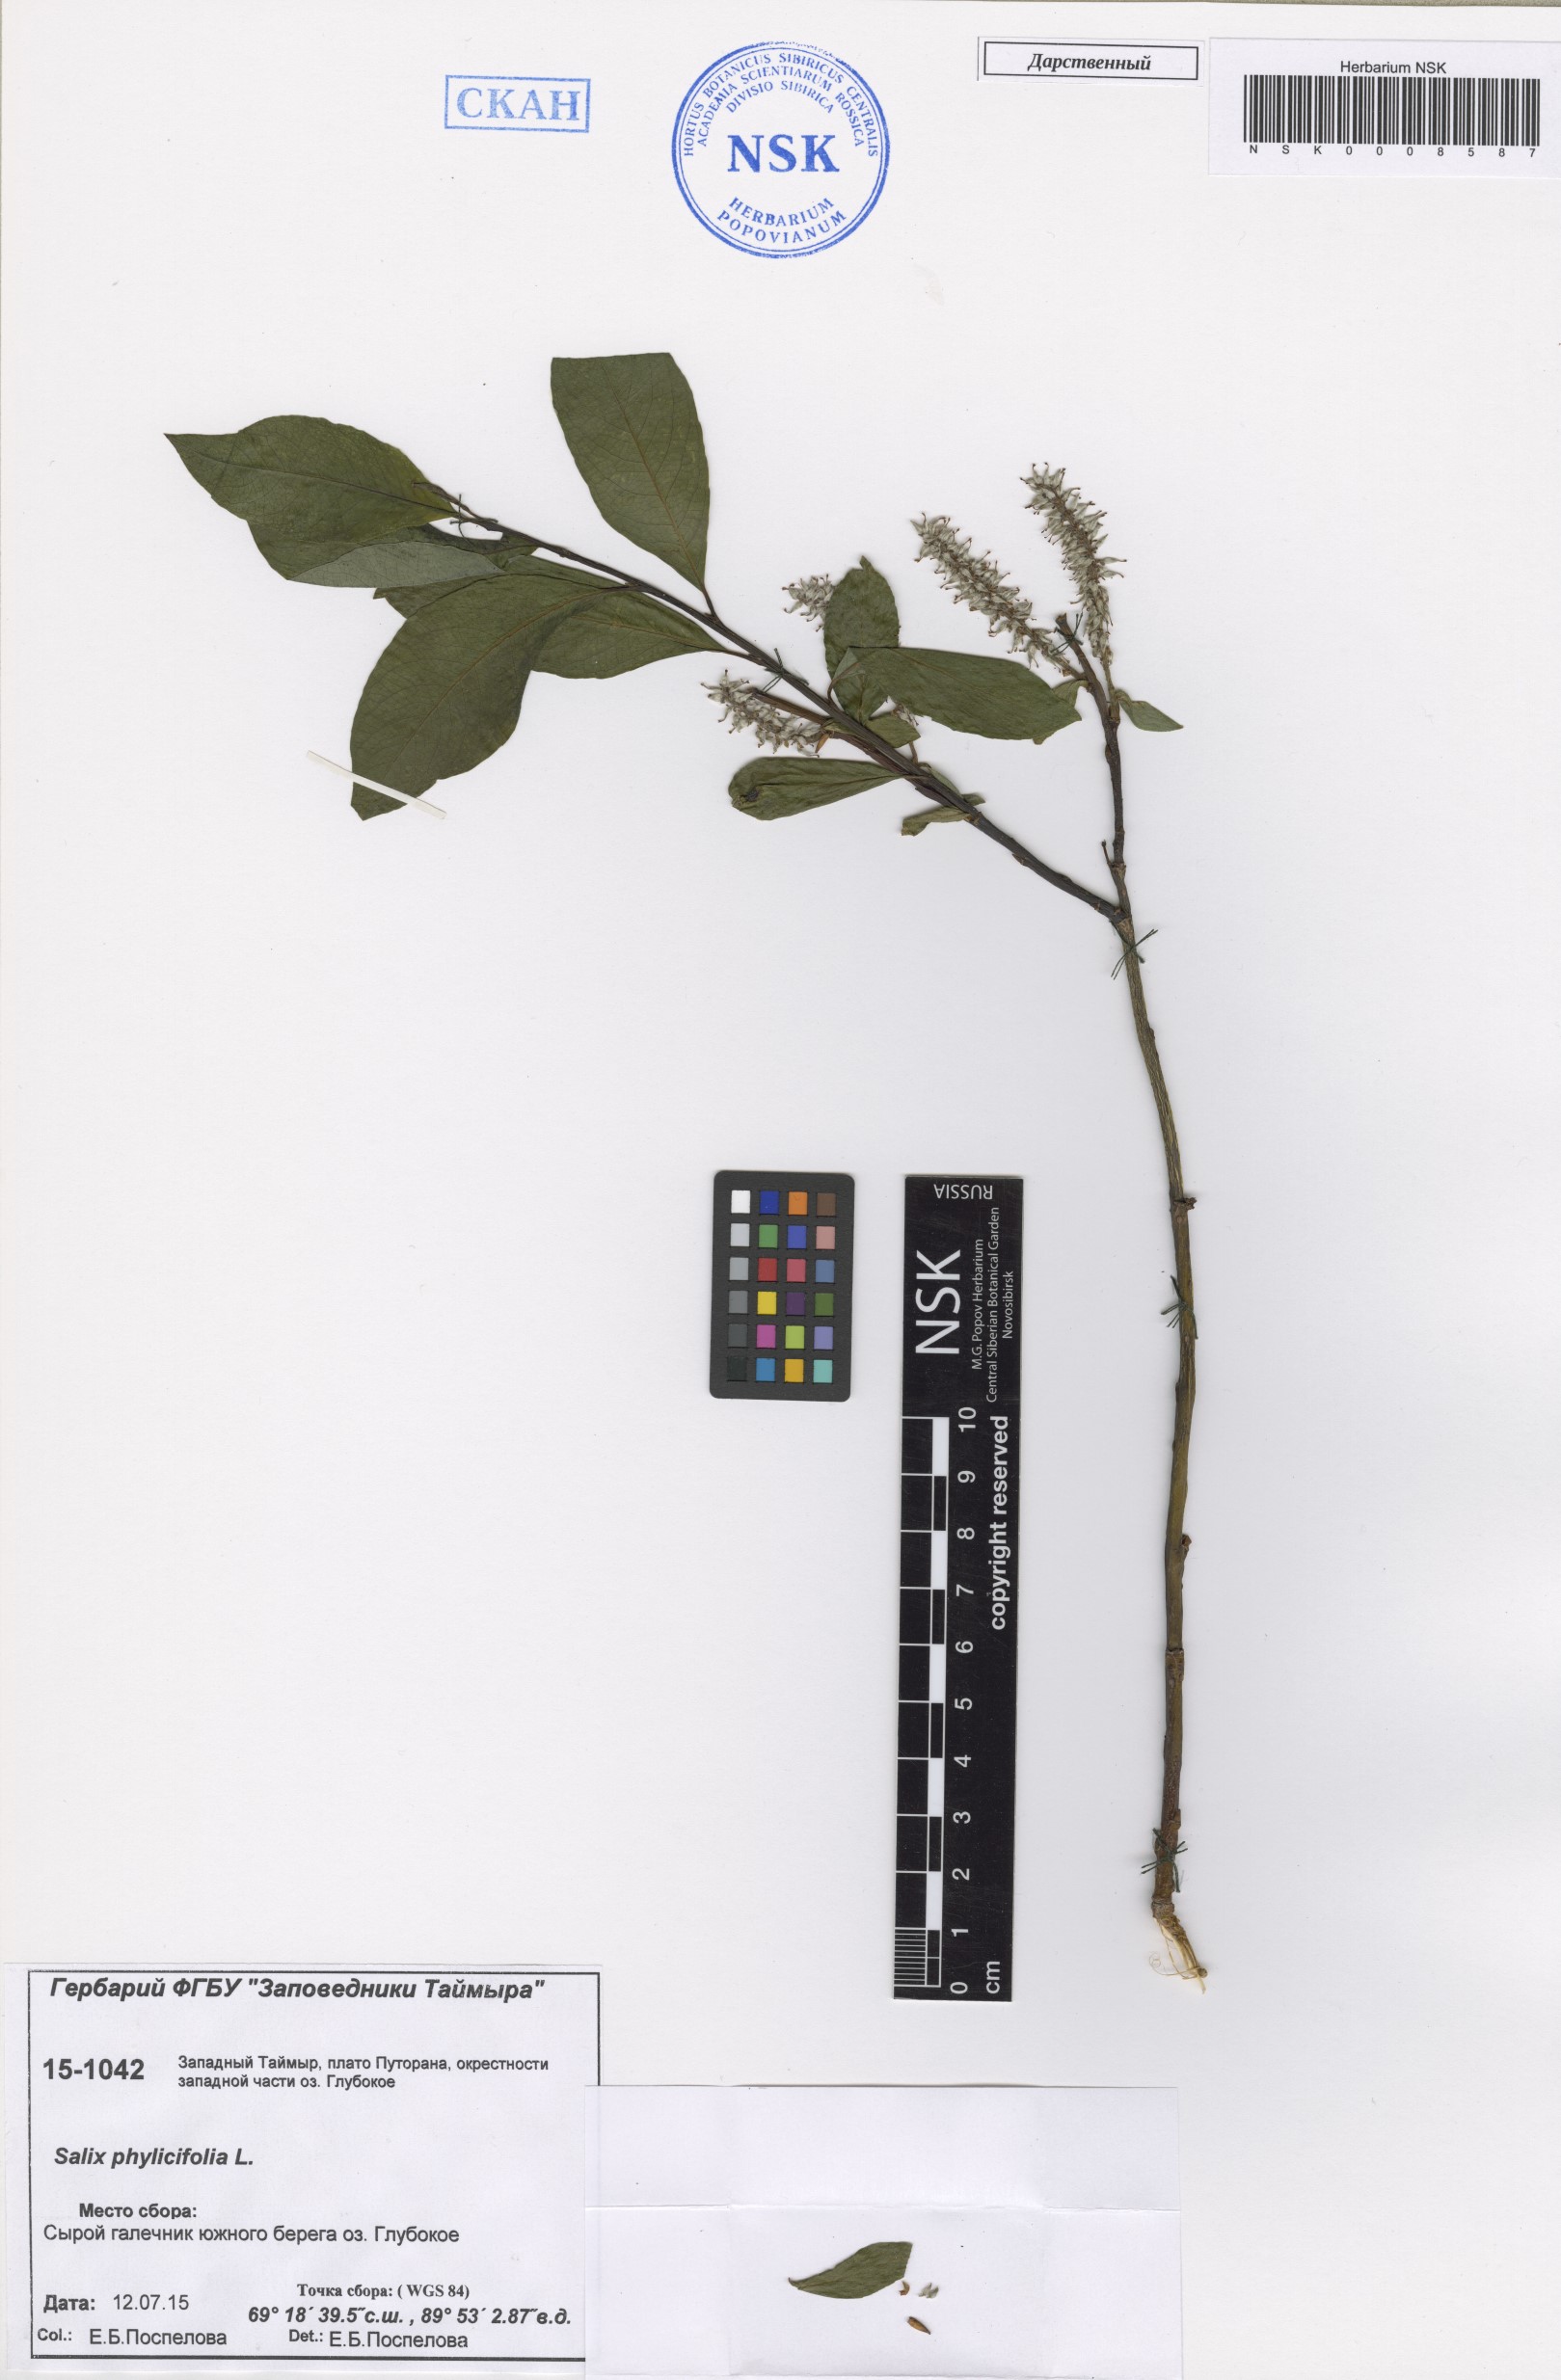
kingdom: Plantae
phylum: Tracheophyta
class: Magnoliopsida
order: Malpighiales
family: Salicaceae
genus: Salix
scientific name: Salix phylicifolia
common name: Tea-leaved willow
